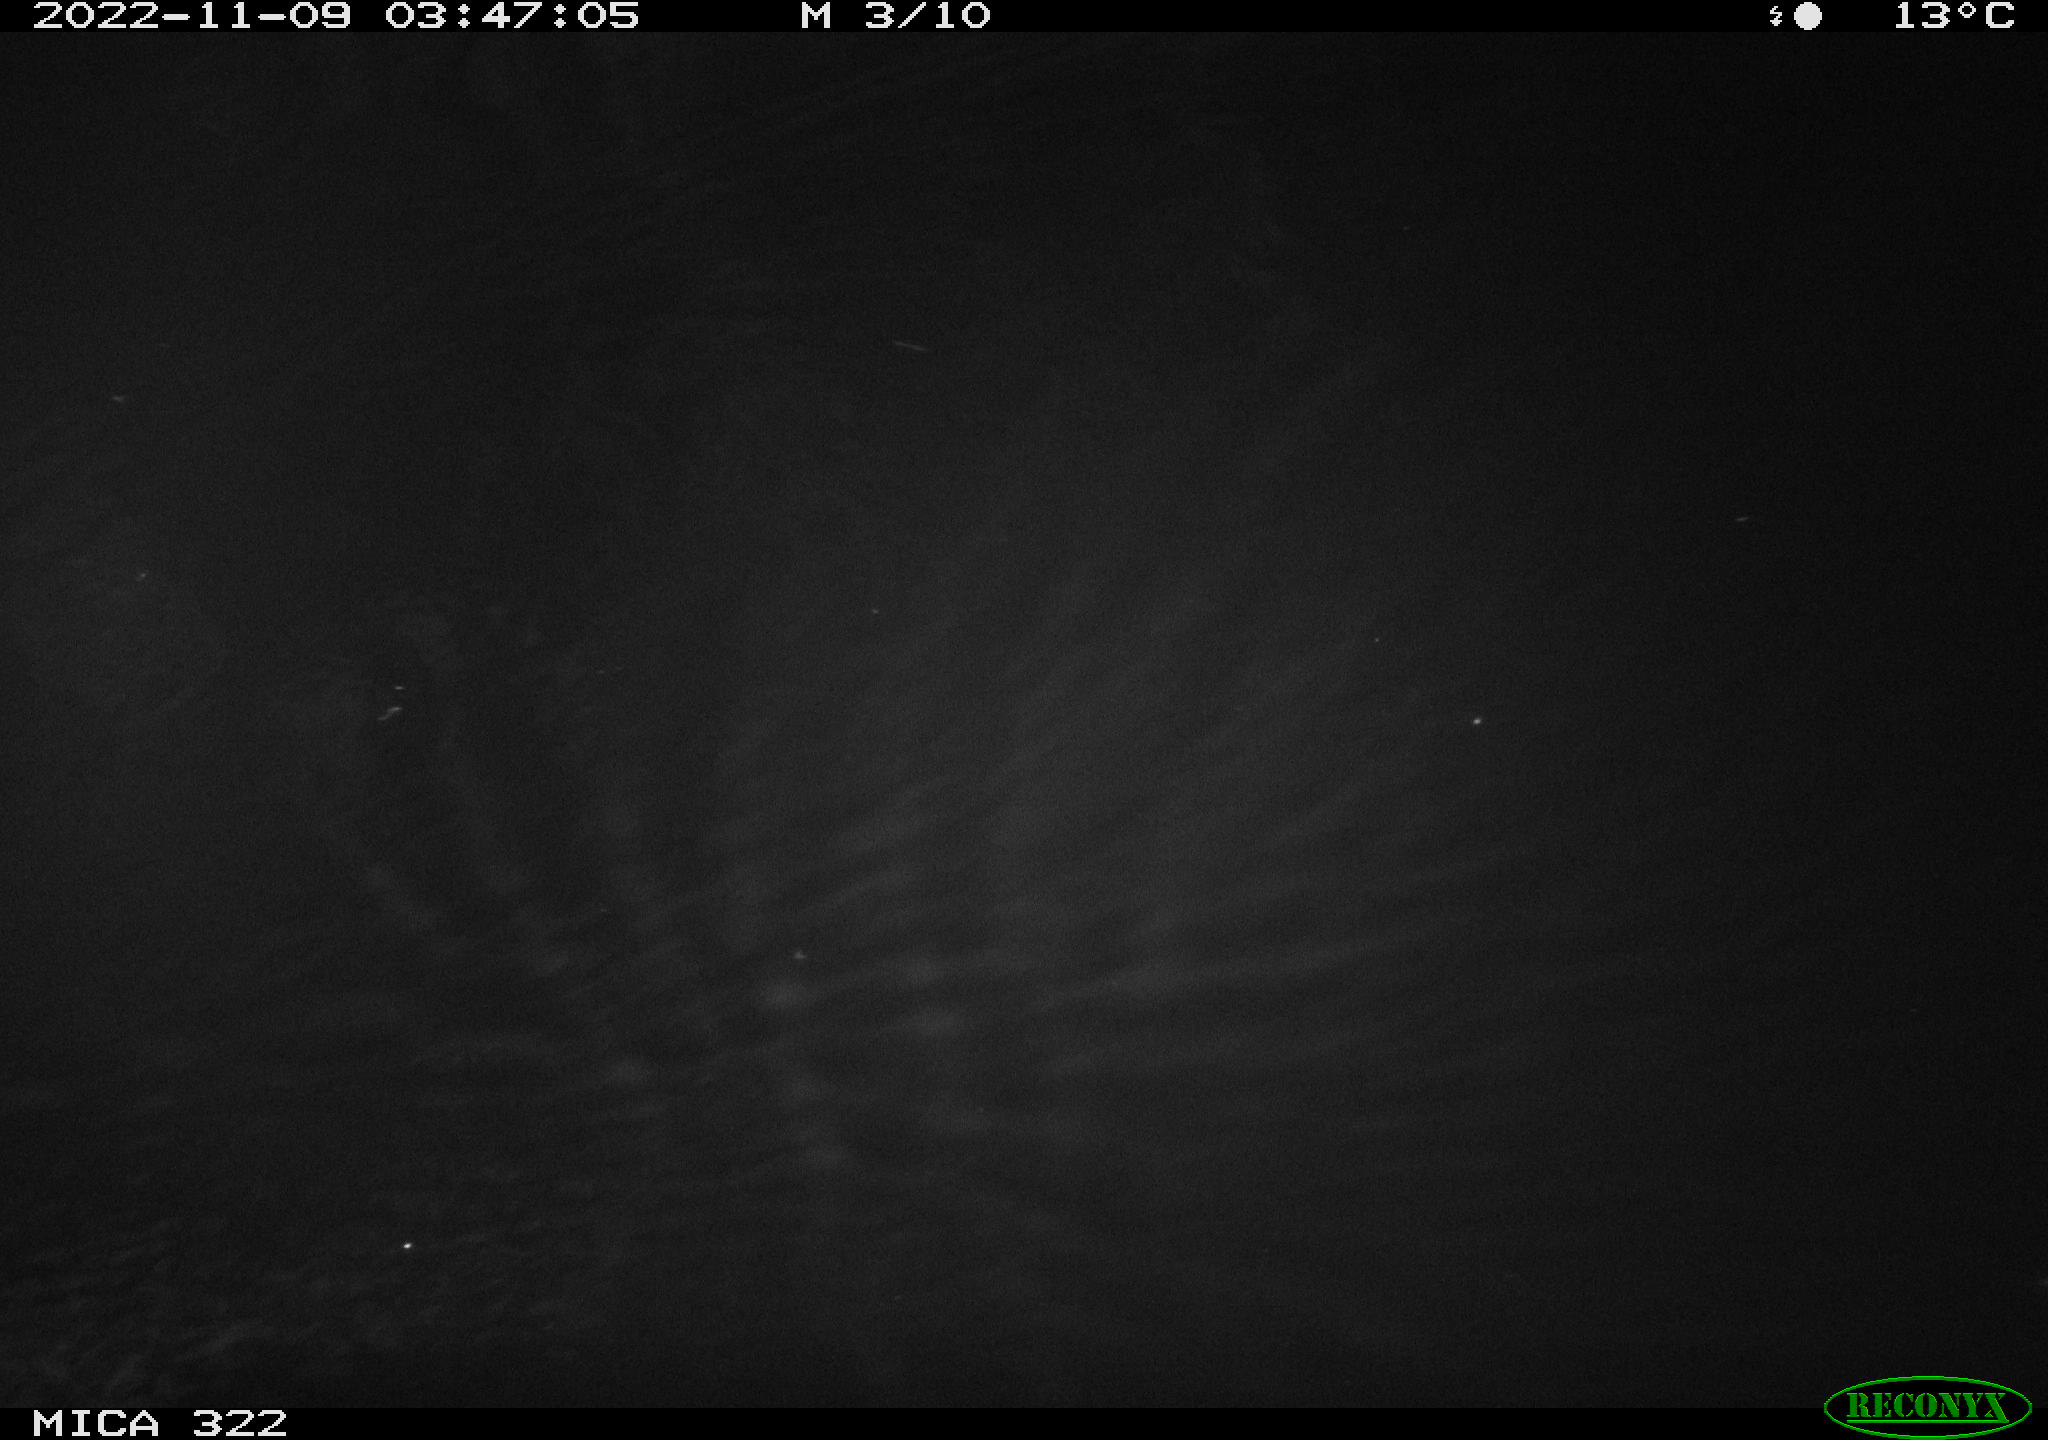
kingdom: Animalia
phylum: Chordata
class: Mammalia
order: Rodentia
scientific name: Rodentia
